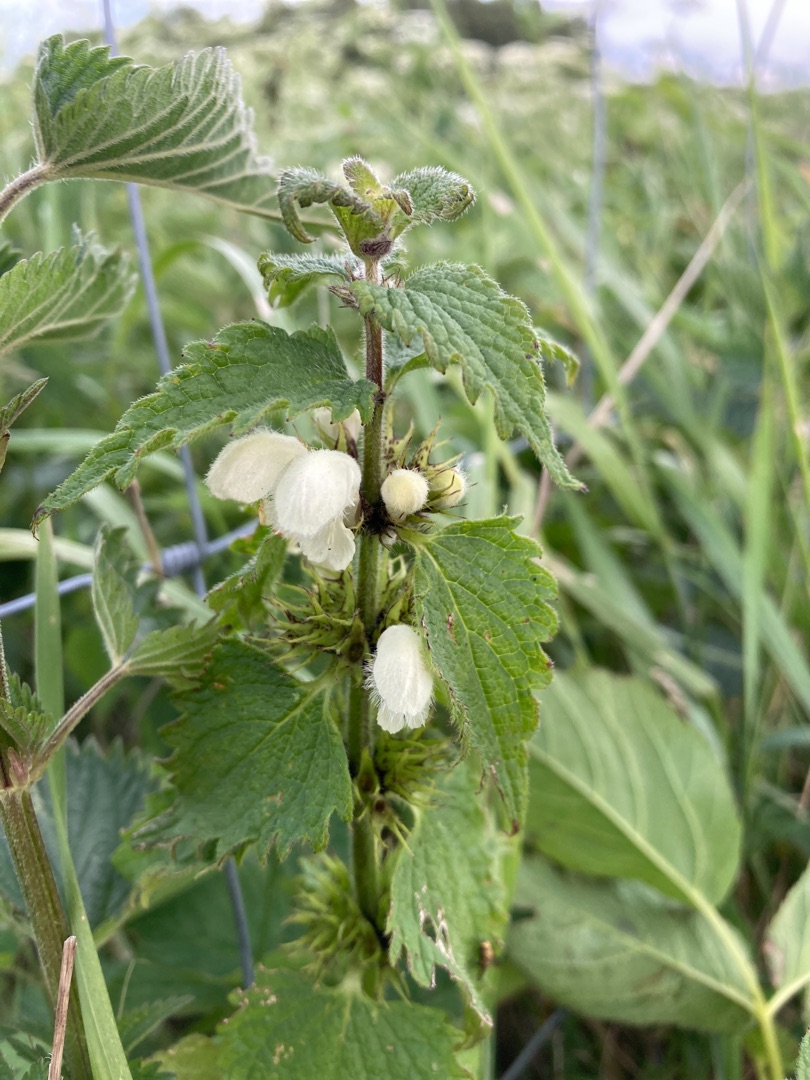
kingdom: Plantae
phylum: Tracheophyta
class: Magnoliopsida
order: Lamiales
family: Lamiaceae
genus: Lamium
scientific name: Lamium album
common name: Døvnælde
